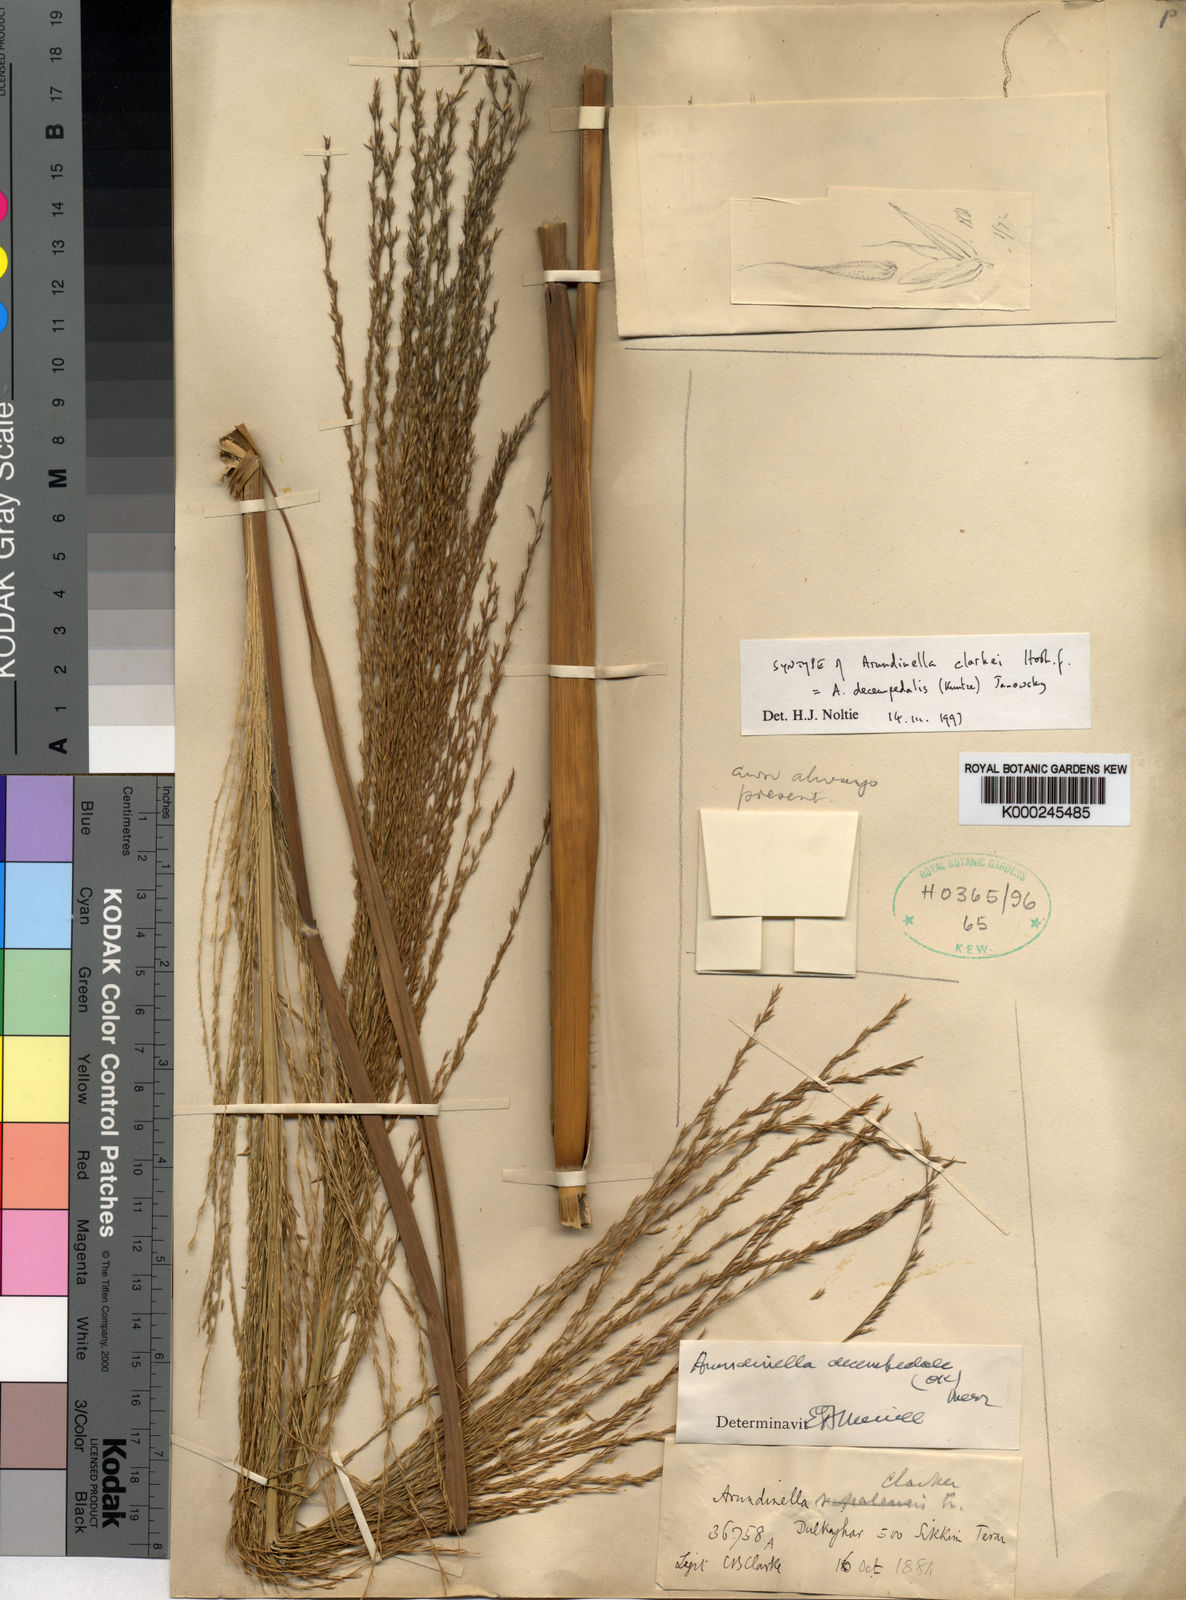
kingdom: Plantae
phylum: Tracheophyta
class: Liliopsida
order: Poales
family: Poaceae
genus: Arundinella
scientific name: Arundinella decempedalis
